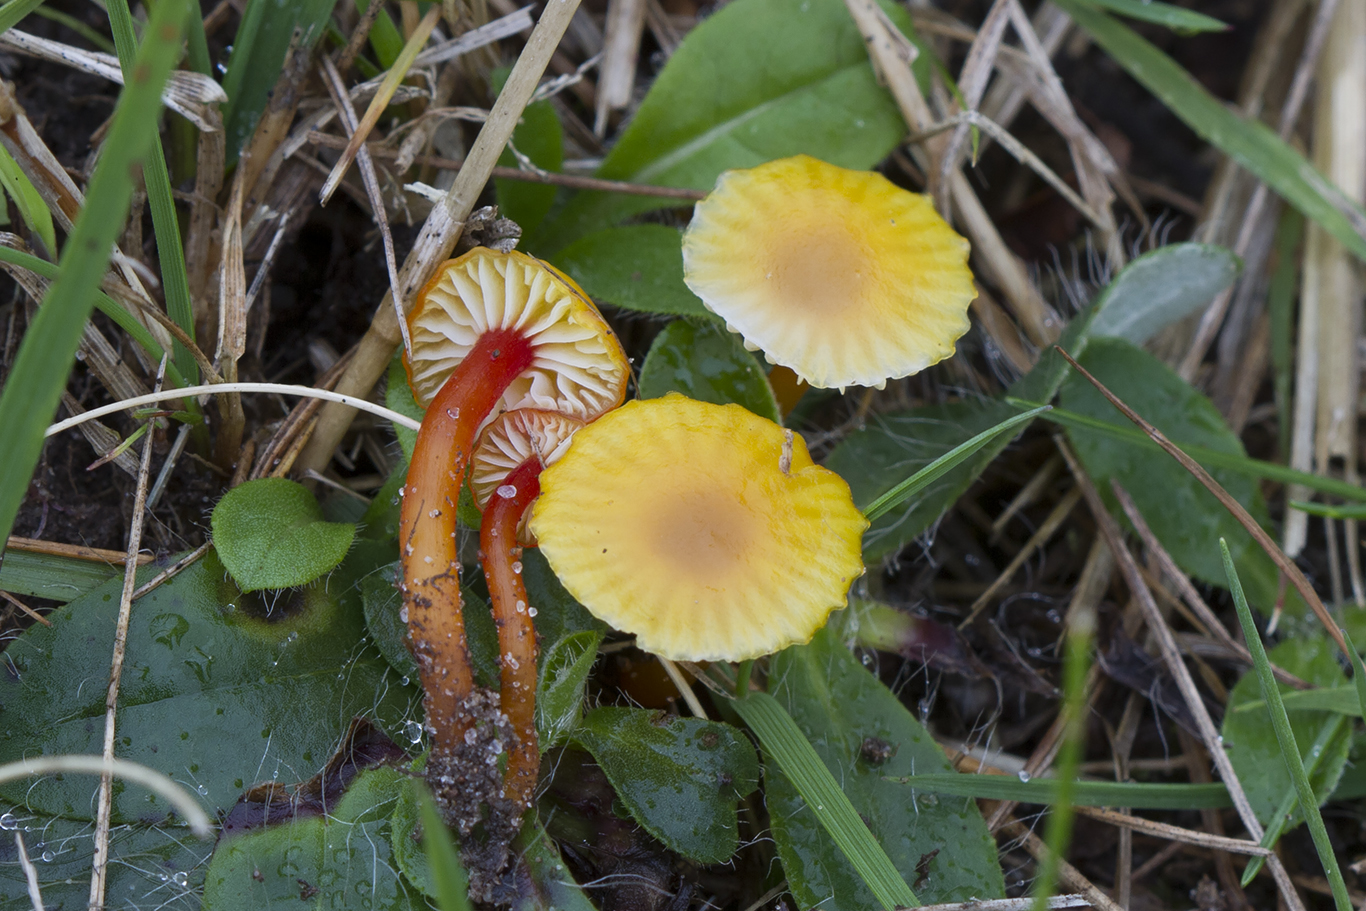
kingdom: Fungi
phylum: Basidiomycota
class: Agaricomycetes
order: Agaricales
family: Hygrophoraceae
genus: Hygrocybe
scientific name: Hygrocybe insipida
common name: liden vokshat
